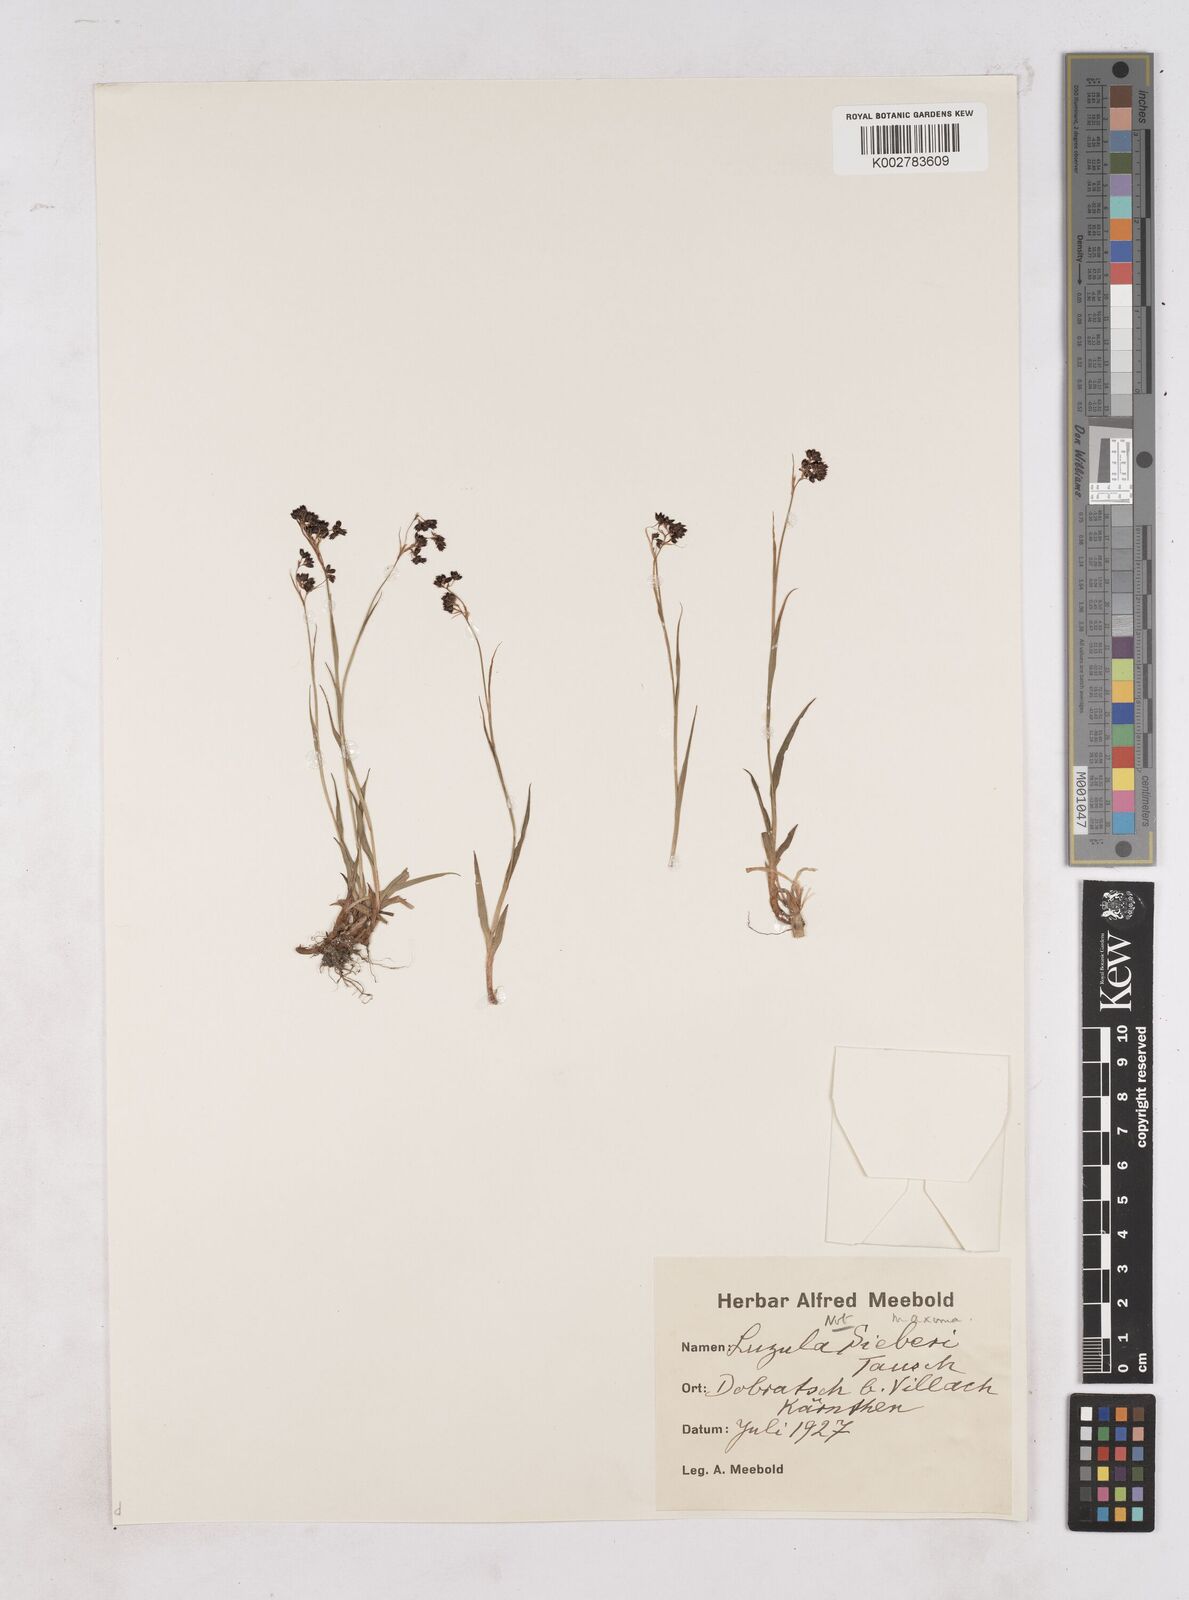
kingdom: Plantae
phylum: Tracheophyta
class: Liliopsida
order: Poales
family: Juncaceae
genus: Luzula
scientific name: Luzula
